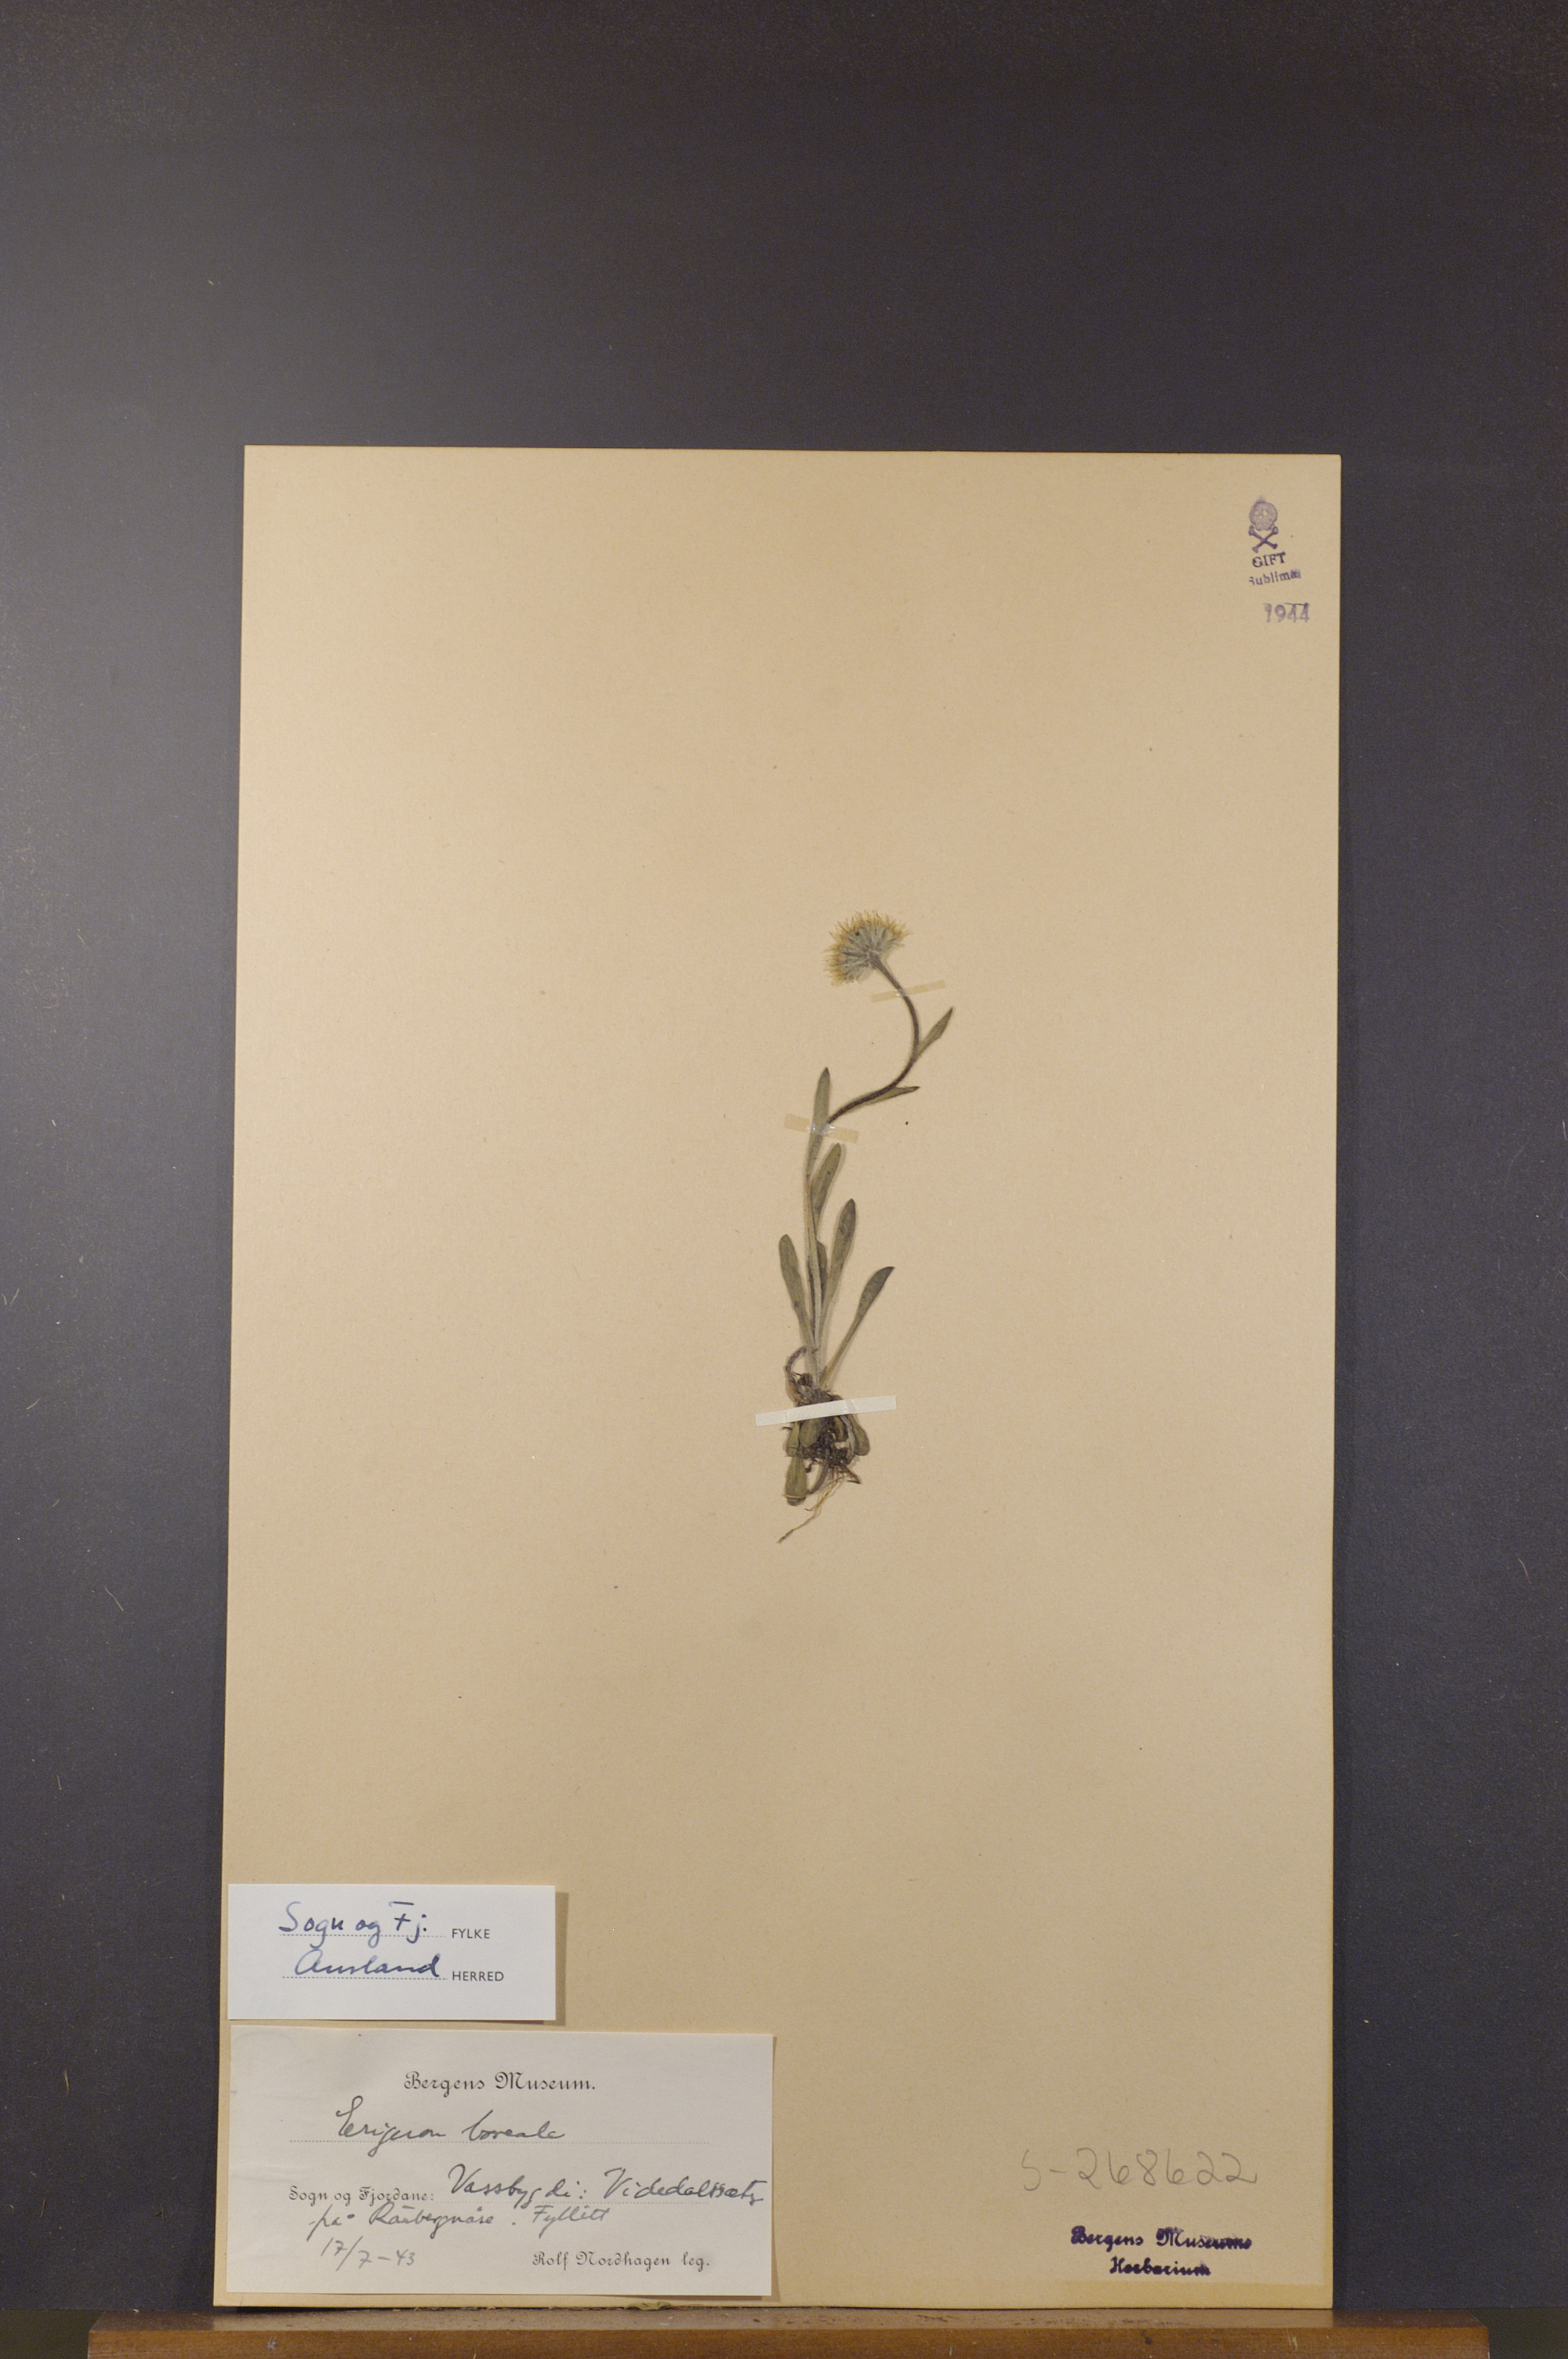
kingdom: Plantae
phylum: Tracheophyta
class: Magnoliopsida
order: Asterales
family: Asteraceae
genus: Erigeron
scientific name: Erigeron borealis
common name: Alpine fleabane
